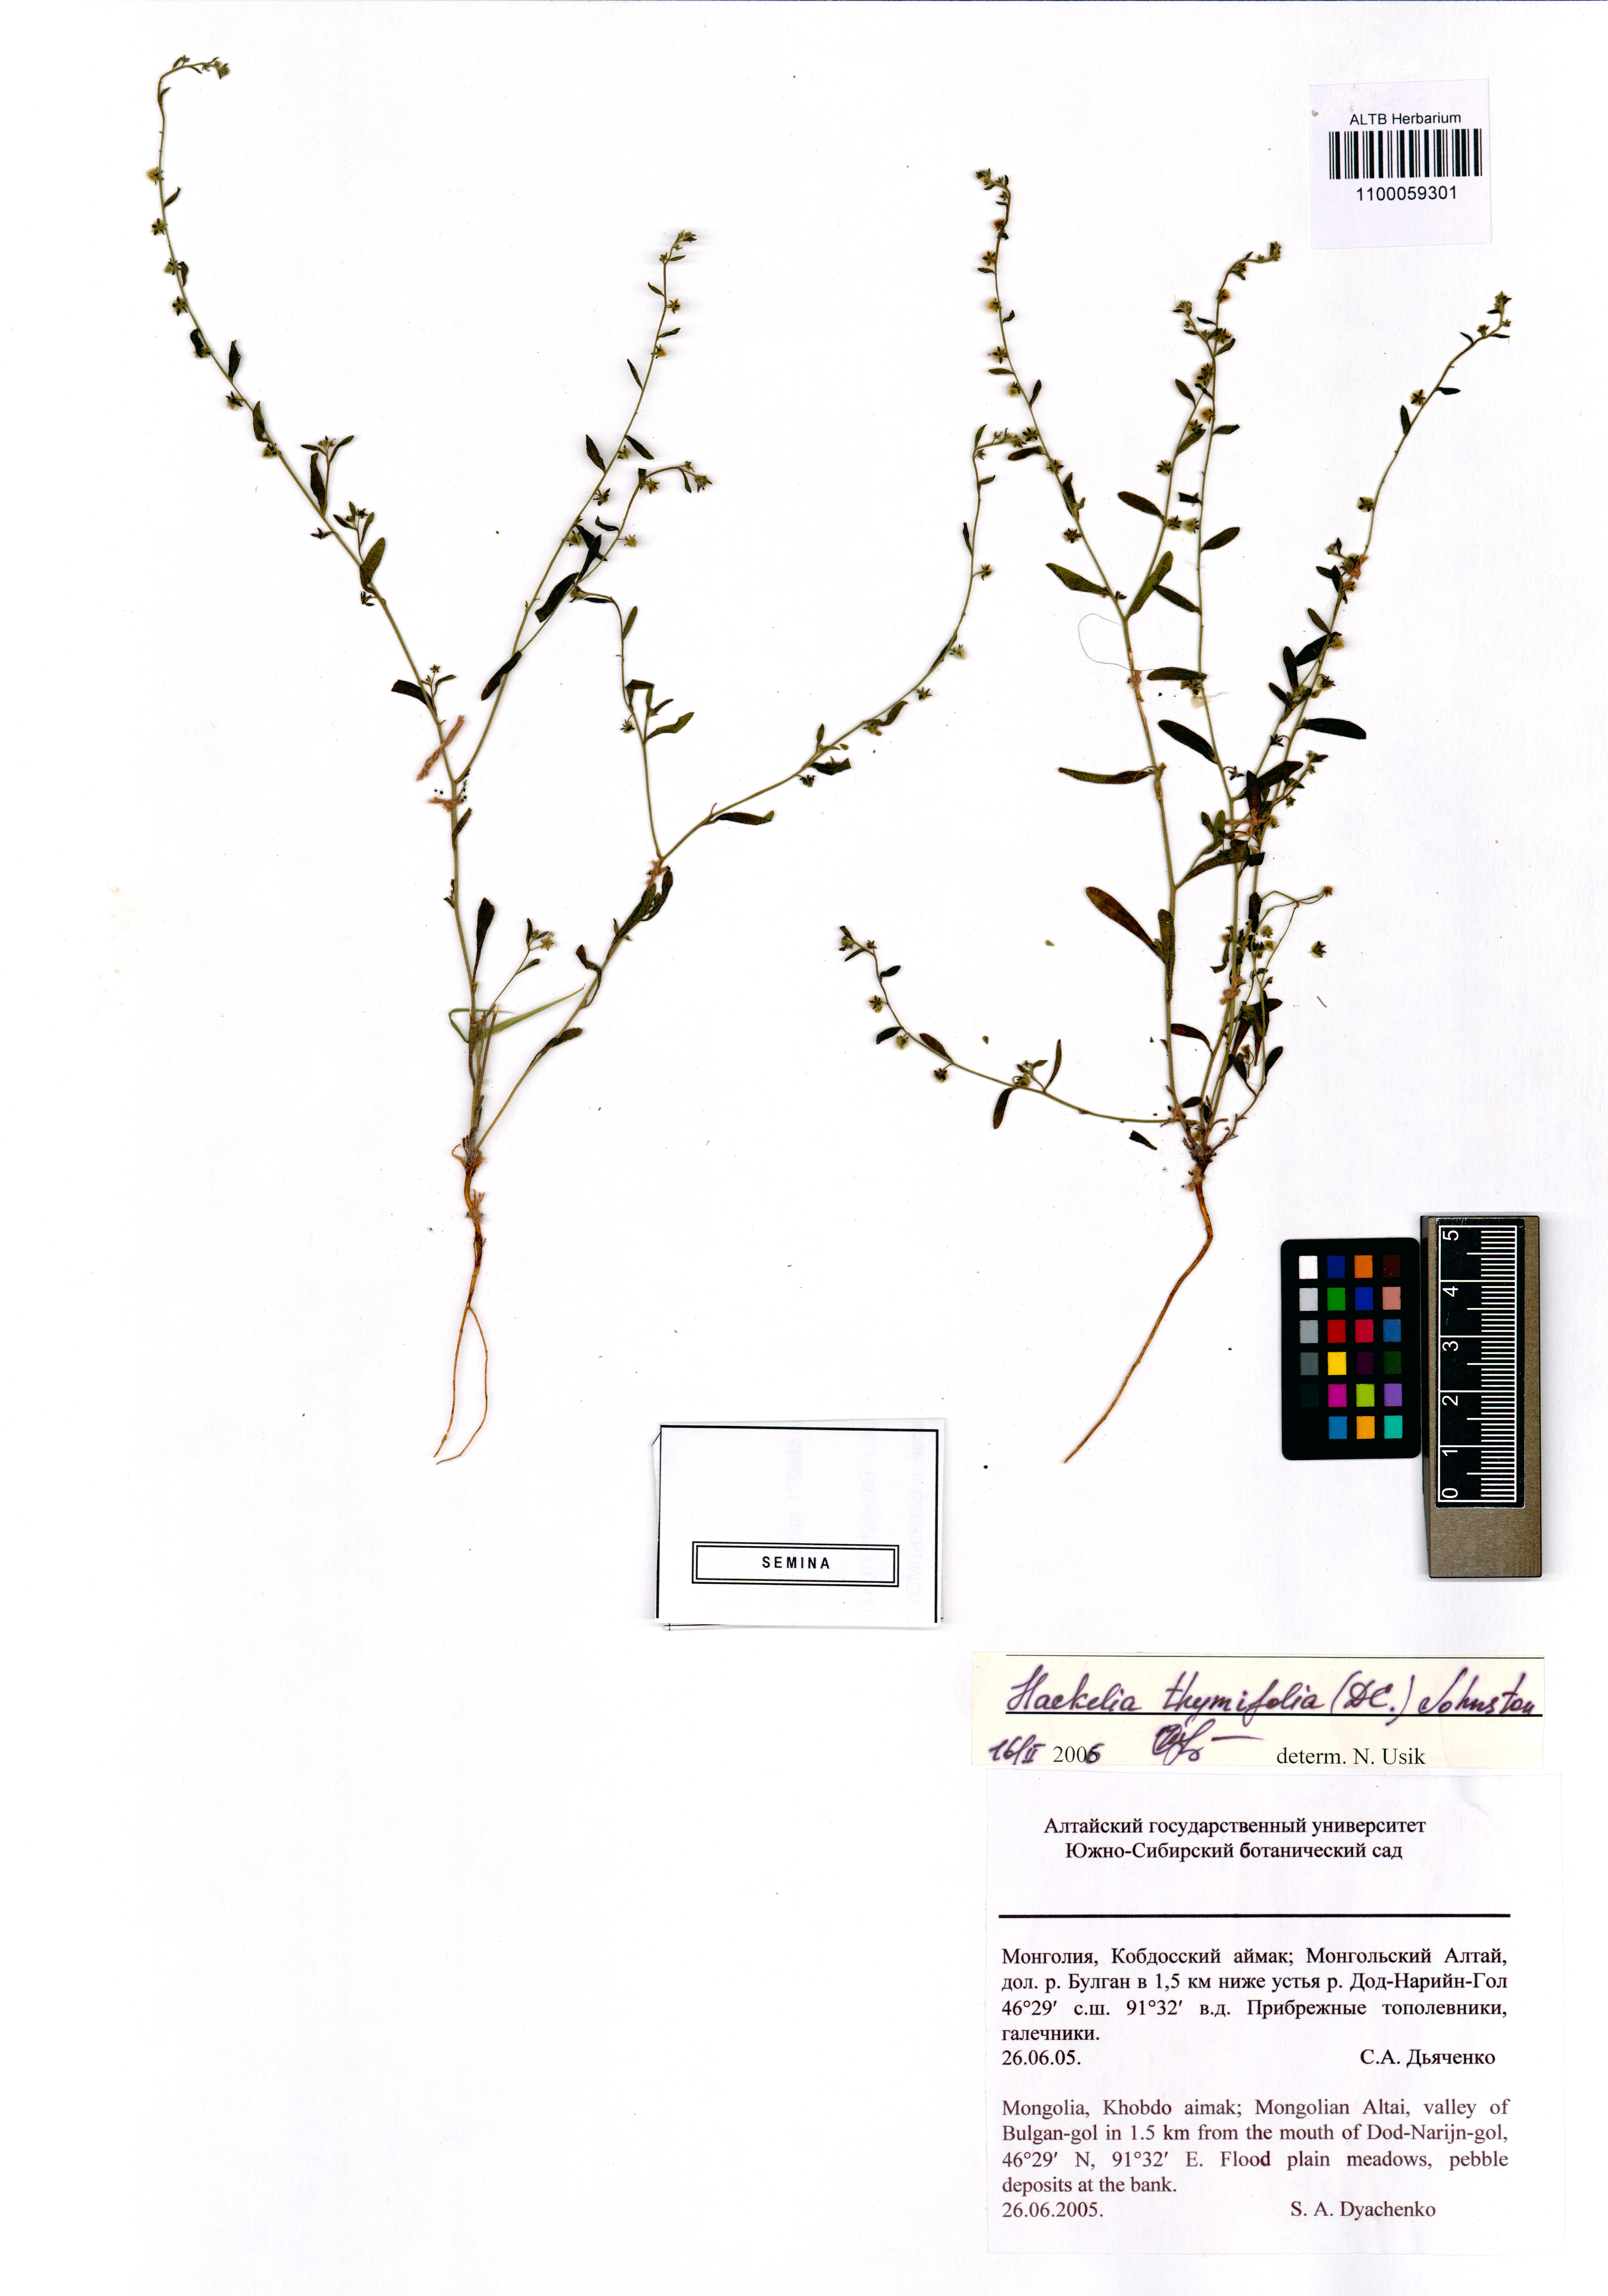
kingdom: Plantae
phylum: Tracheophyta
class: Magnoliopsida
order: Boraginales
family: Boraginaceae
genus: Eritrichium
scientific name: Eritrichium thymifolium
